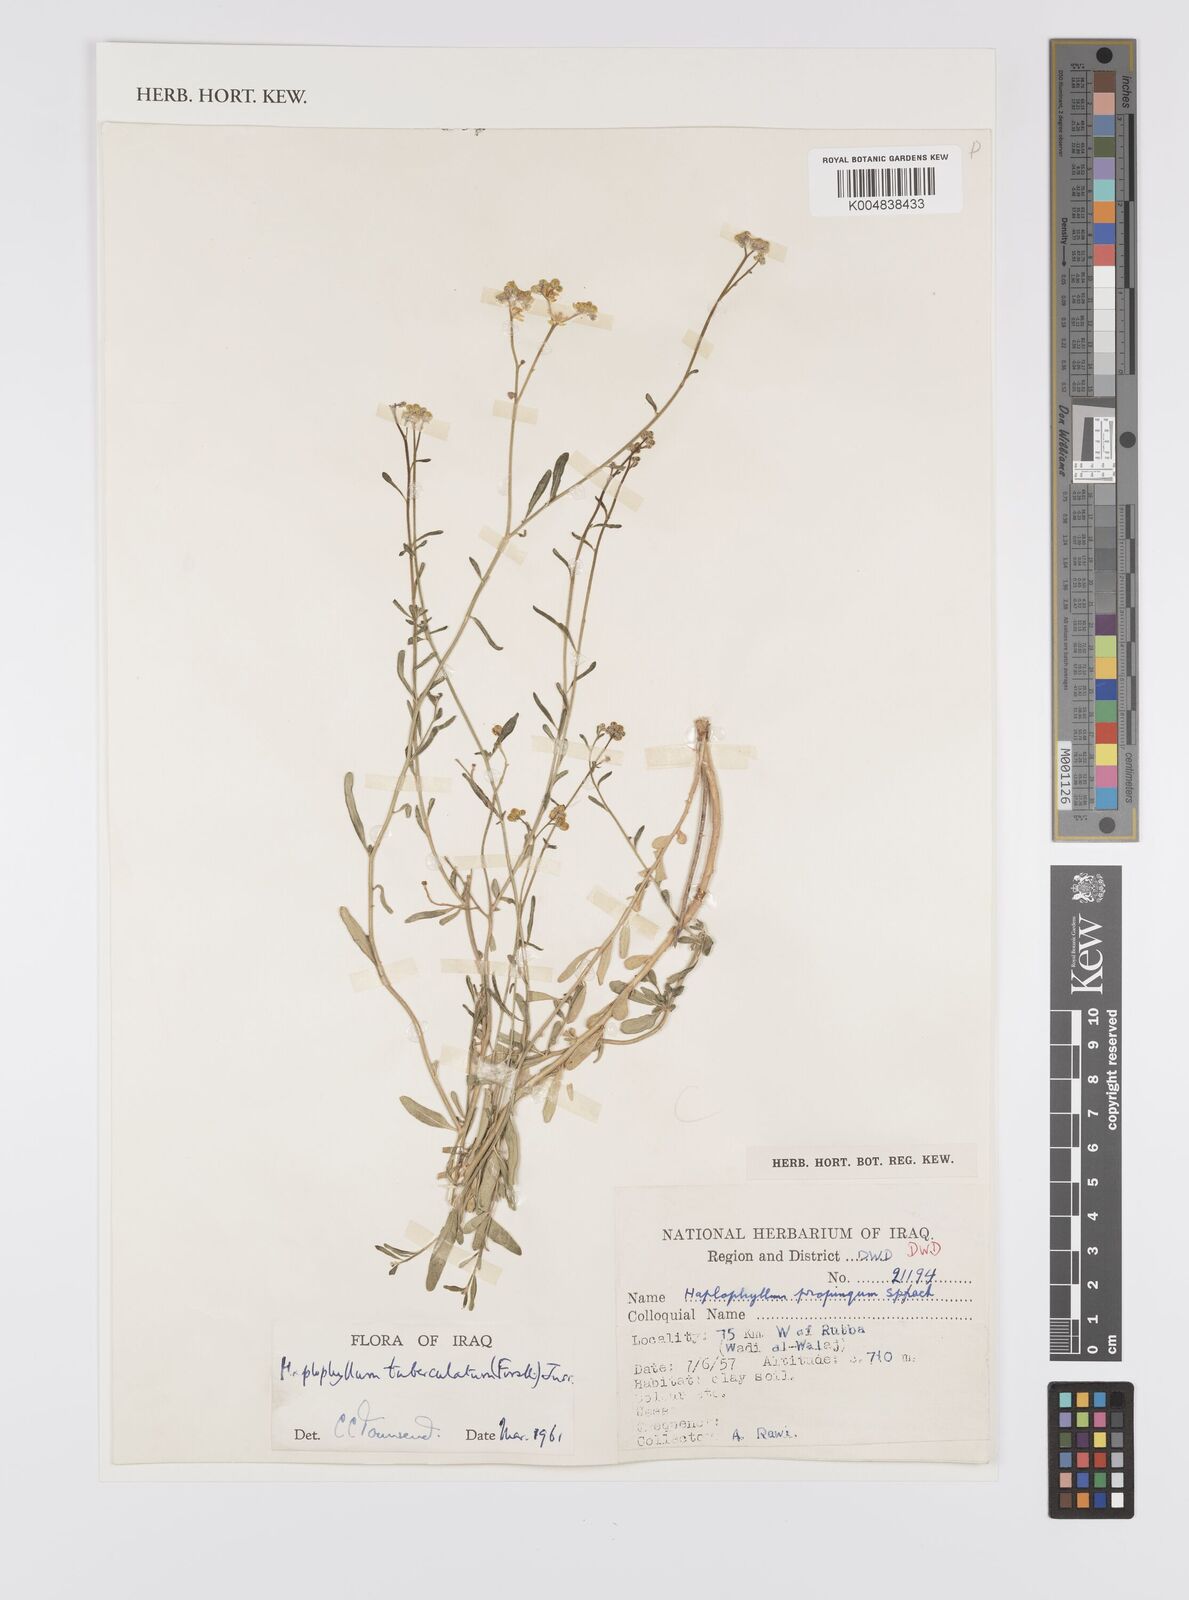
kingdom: Plantae
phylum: Tracheophyta
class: Magnoliopsida
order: Sapindales
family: Rutaceae
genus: Haplophyllum
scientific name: Haplophyllum tuberculatum
